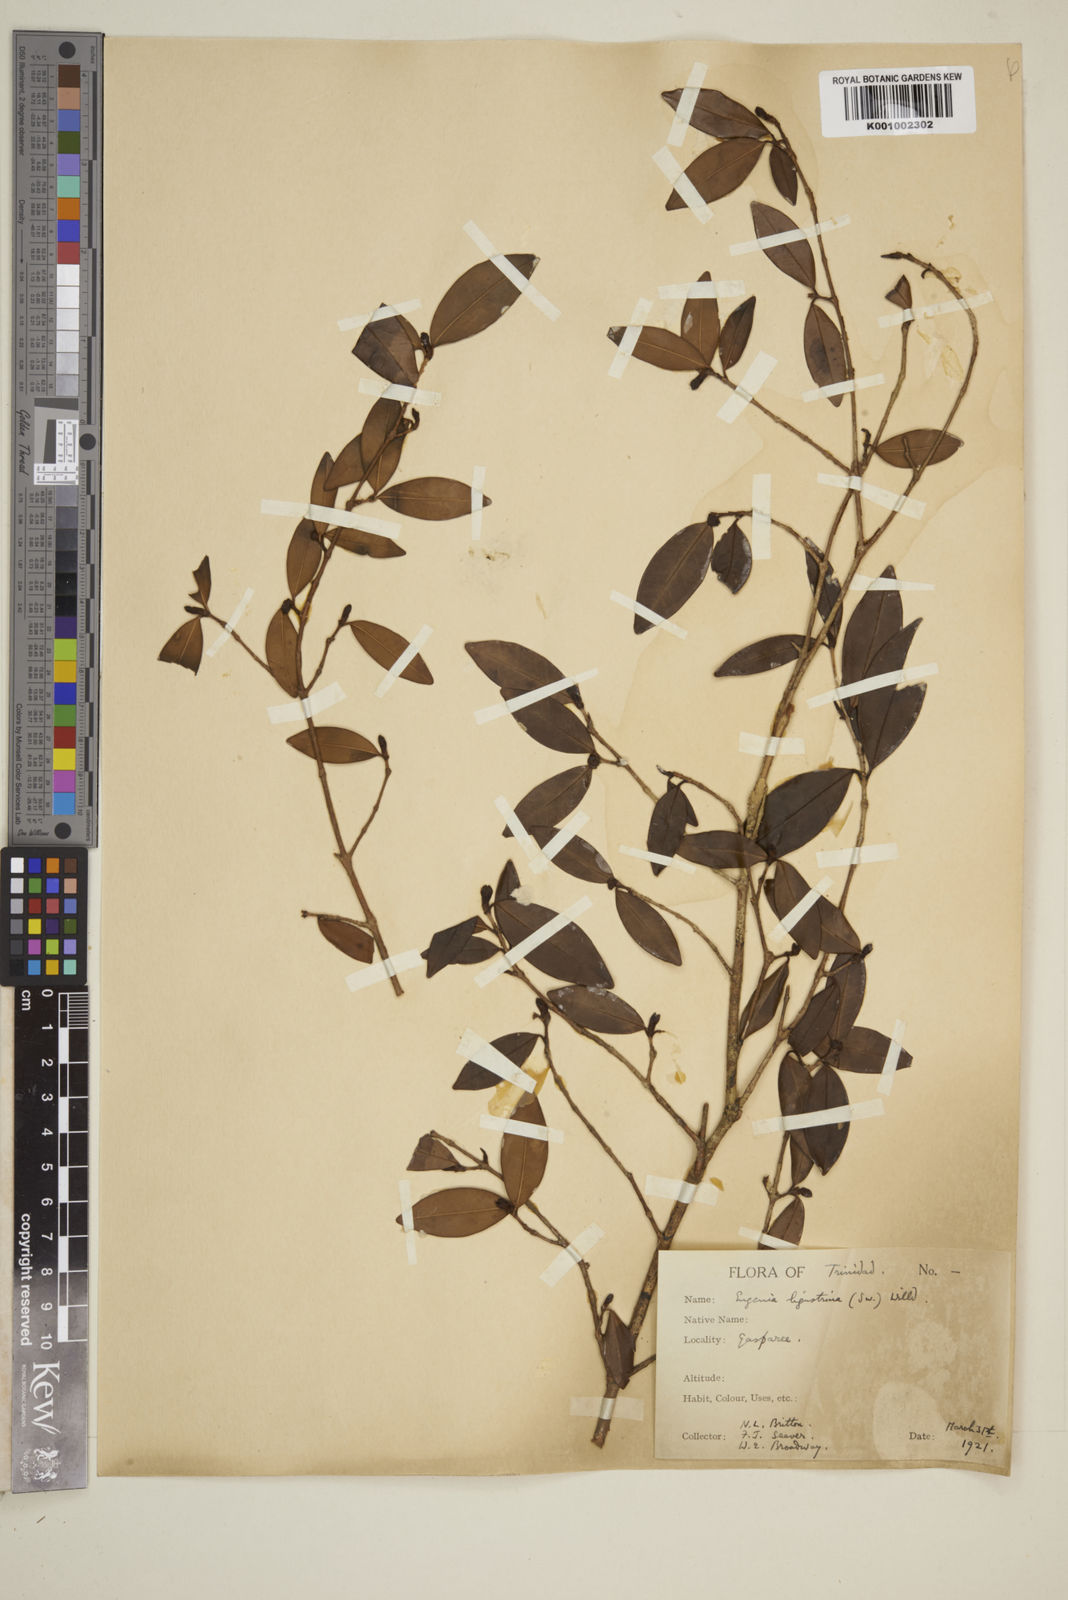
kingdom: Plantae
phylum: Tracheophyta
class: Magnoliopsida
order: Myrtales
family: Myrtaceae
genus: Eugenia
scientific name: Eugenia ligustrina
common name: Privet stopper
